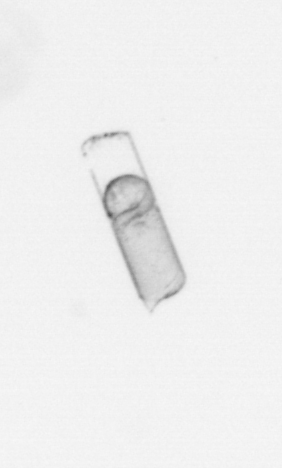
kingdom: Chromista
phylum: Ochrophyta
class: Bacillariophyceae
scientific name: Bacillariophyceae
